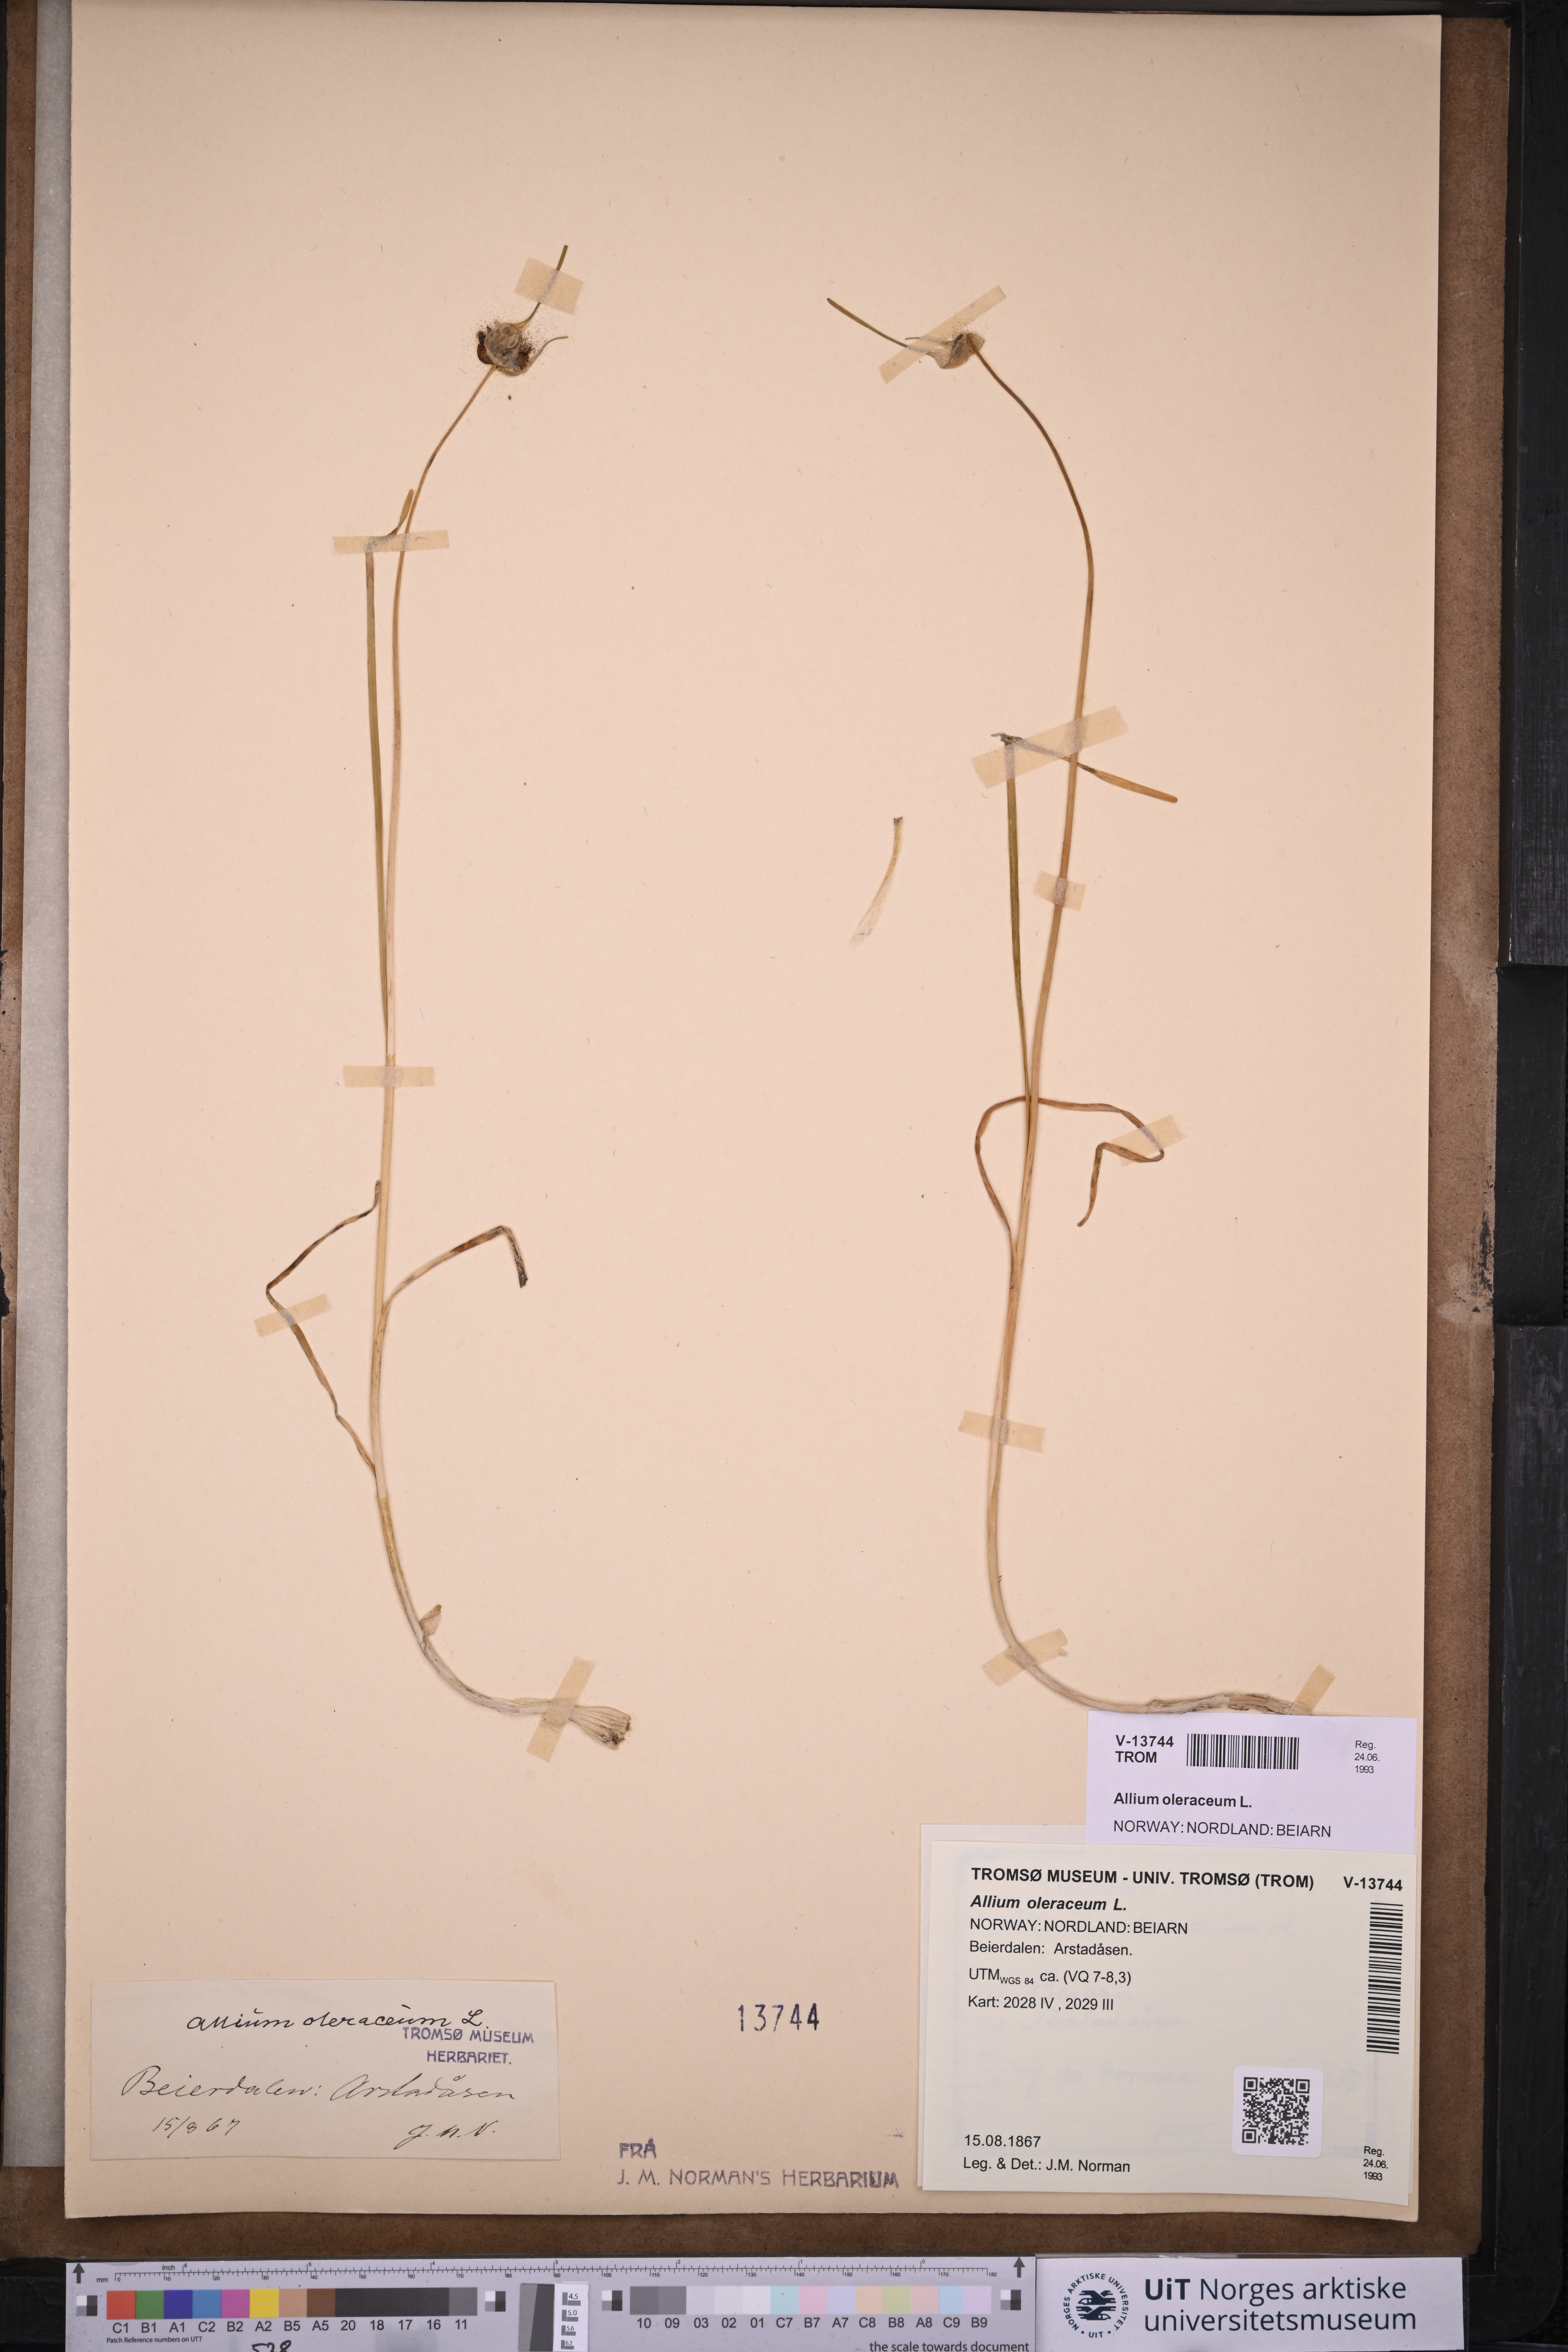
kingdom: Plantae
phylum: Tracheophyta
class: Liliopsida
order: Asparagales
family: Amaryllidaceae
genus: Allium
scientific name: Allium oleraceum
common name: Field garlic
